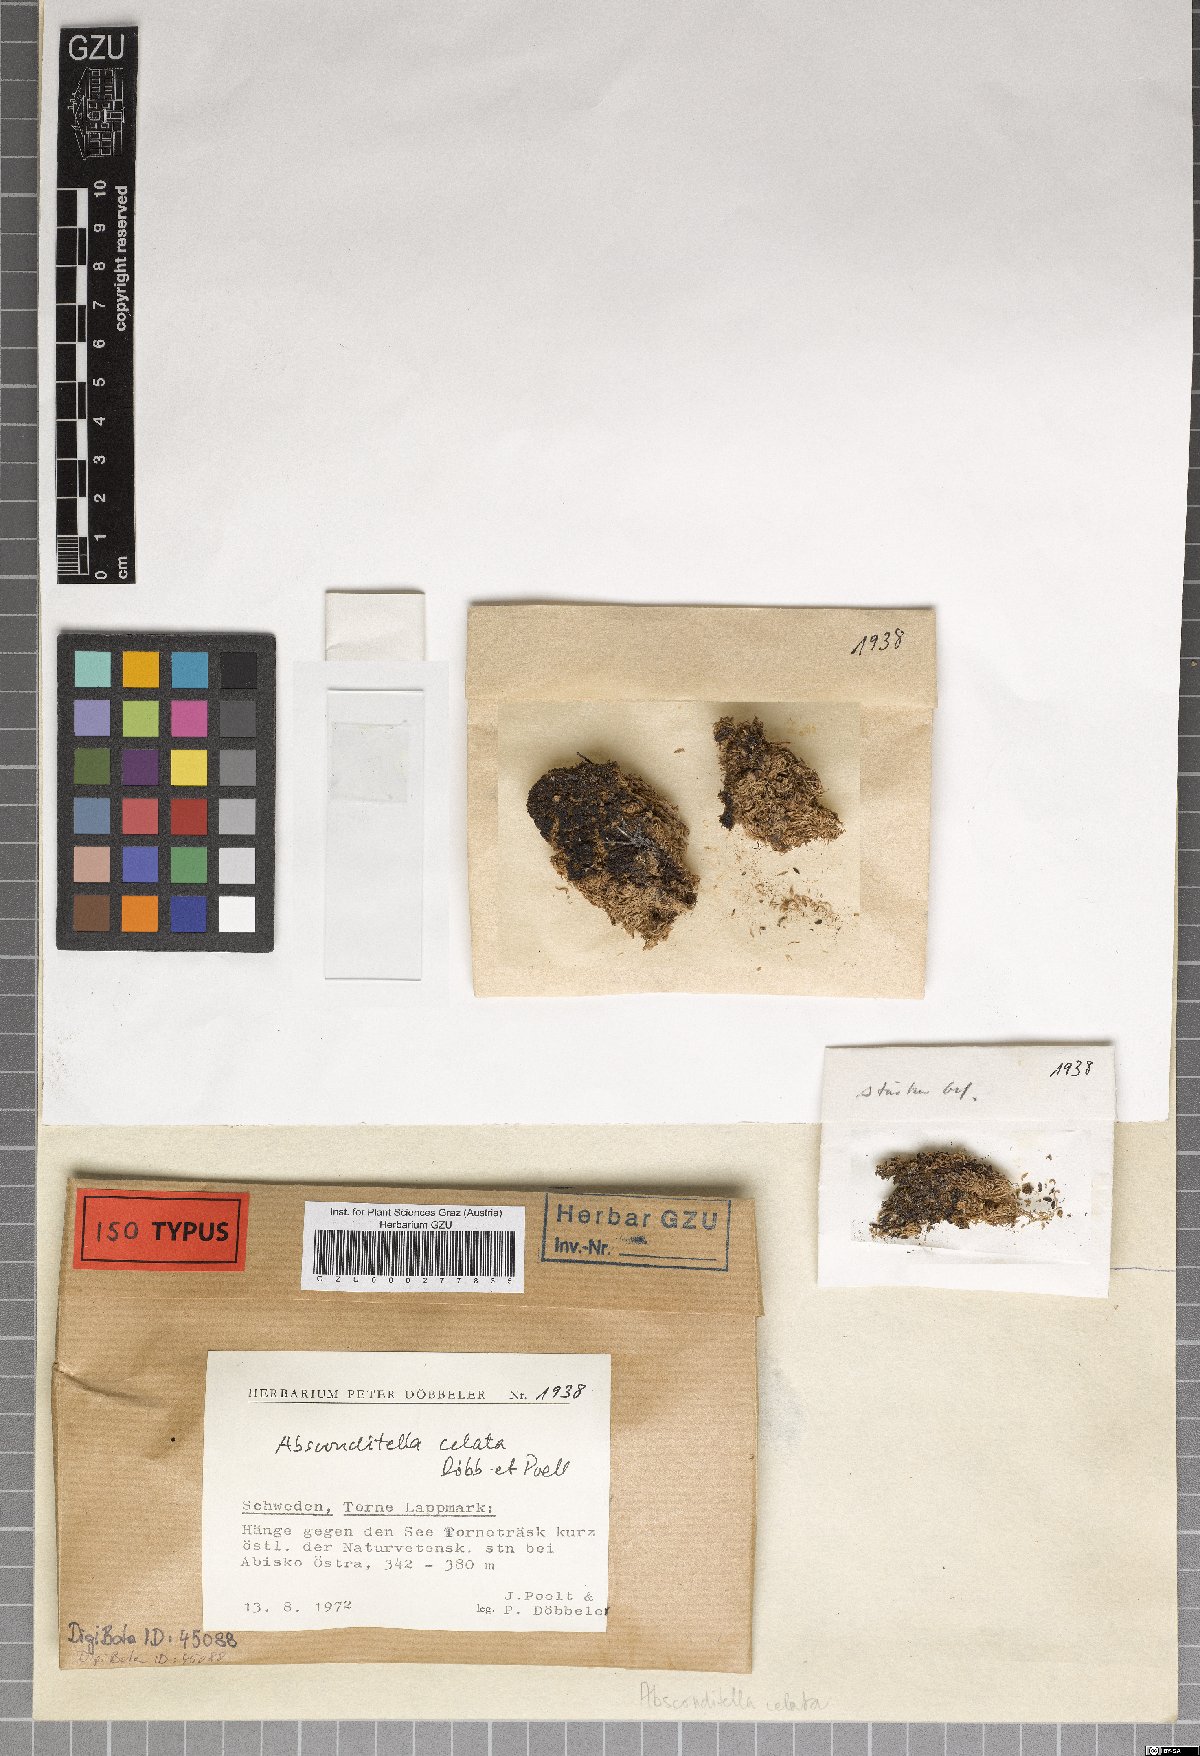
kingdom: Fungi
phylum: Ascomycota
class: Lecanoromycetes
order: Ostropales
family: Stictidaceae
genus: Absconditella
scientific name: Absconditella celata
